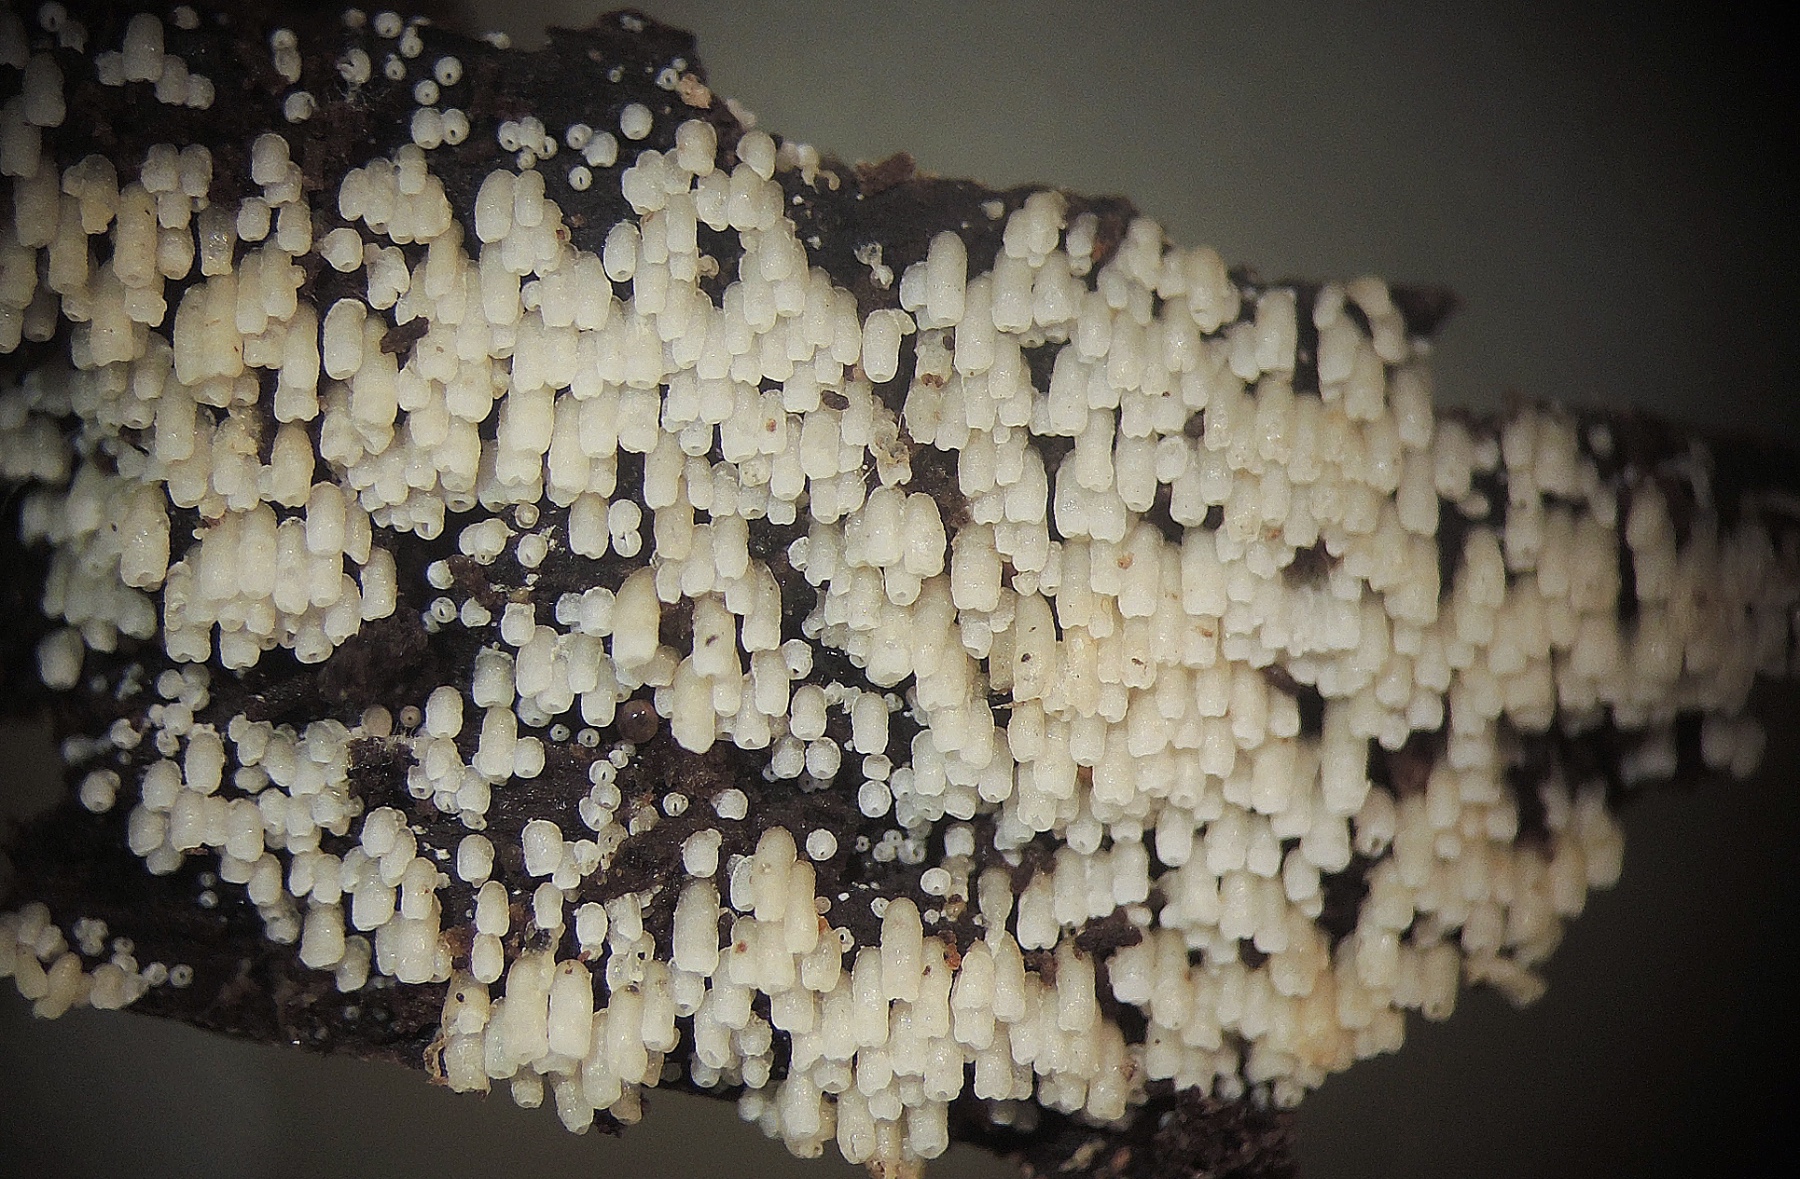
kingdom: Fungi
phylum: Basidiomycota
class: Agaricomycetes
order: Agaricales
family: Marasmiaceae
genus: Henningsomyces
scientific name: Henningsomyces candidus
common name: glat hængerør
